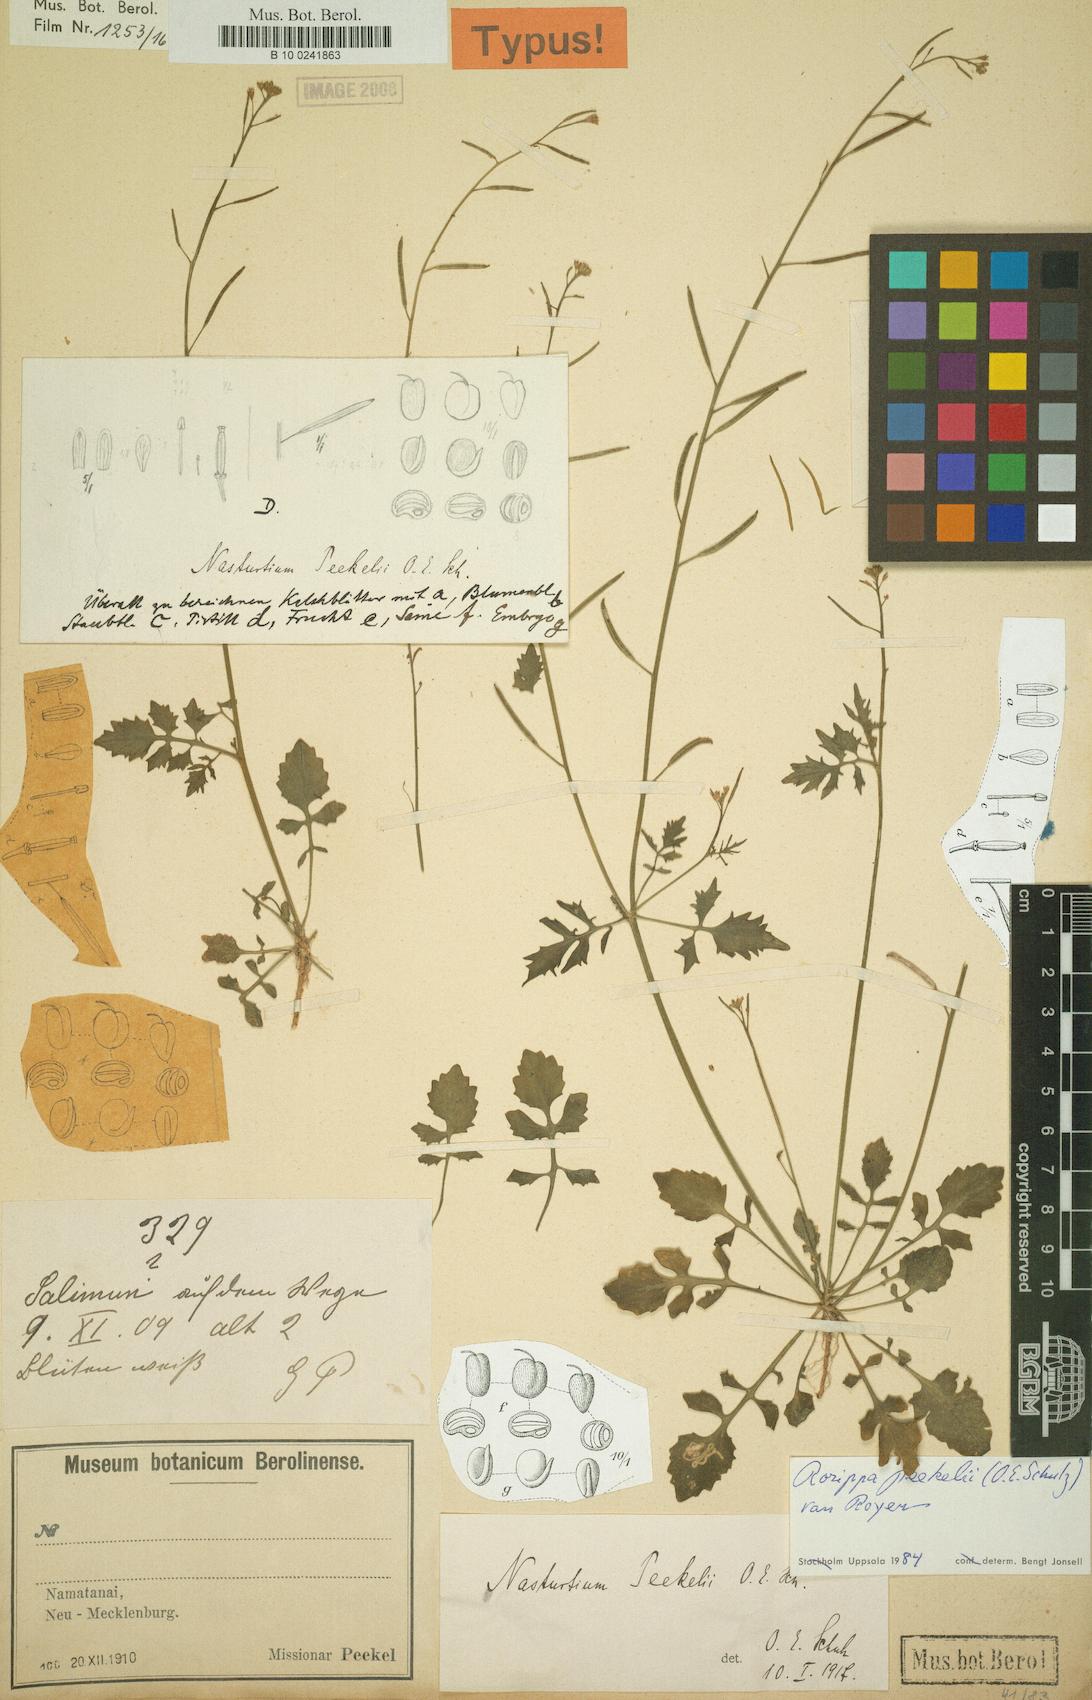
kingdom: Plantae
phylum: Tracheophyta
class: Magnoliopsida
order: Brassicales
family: Brassicaceae
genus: Rorippa
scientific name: Rorippa peekelii
